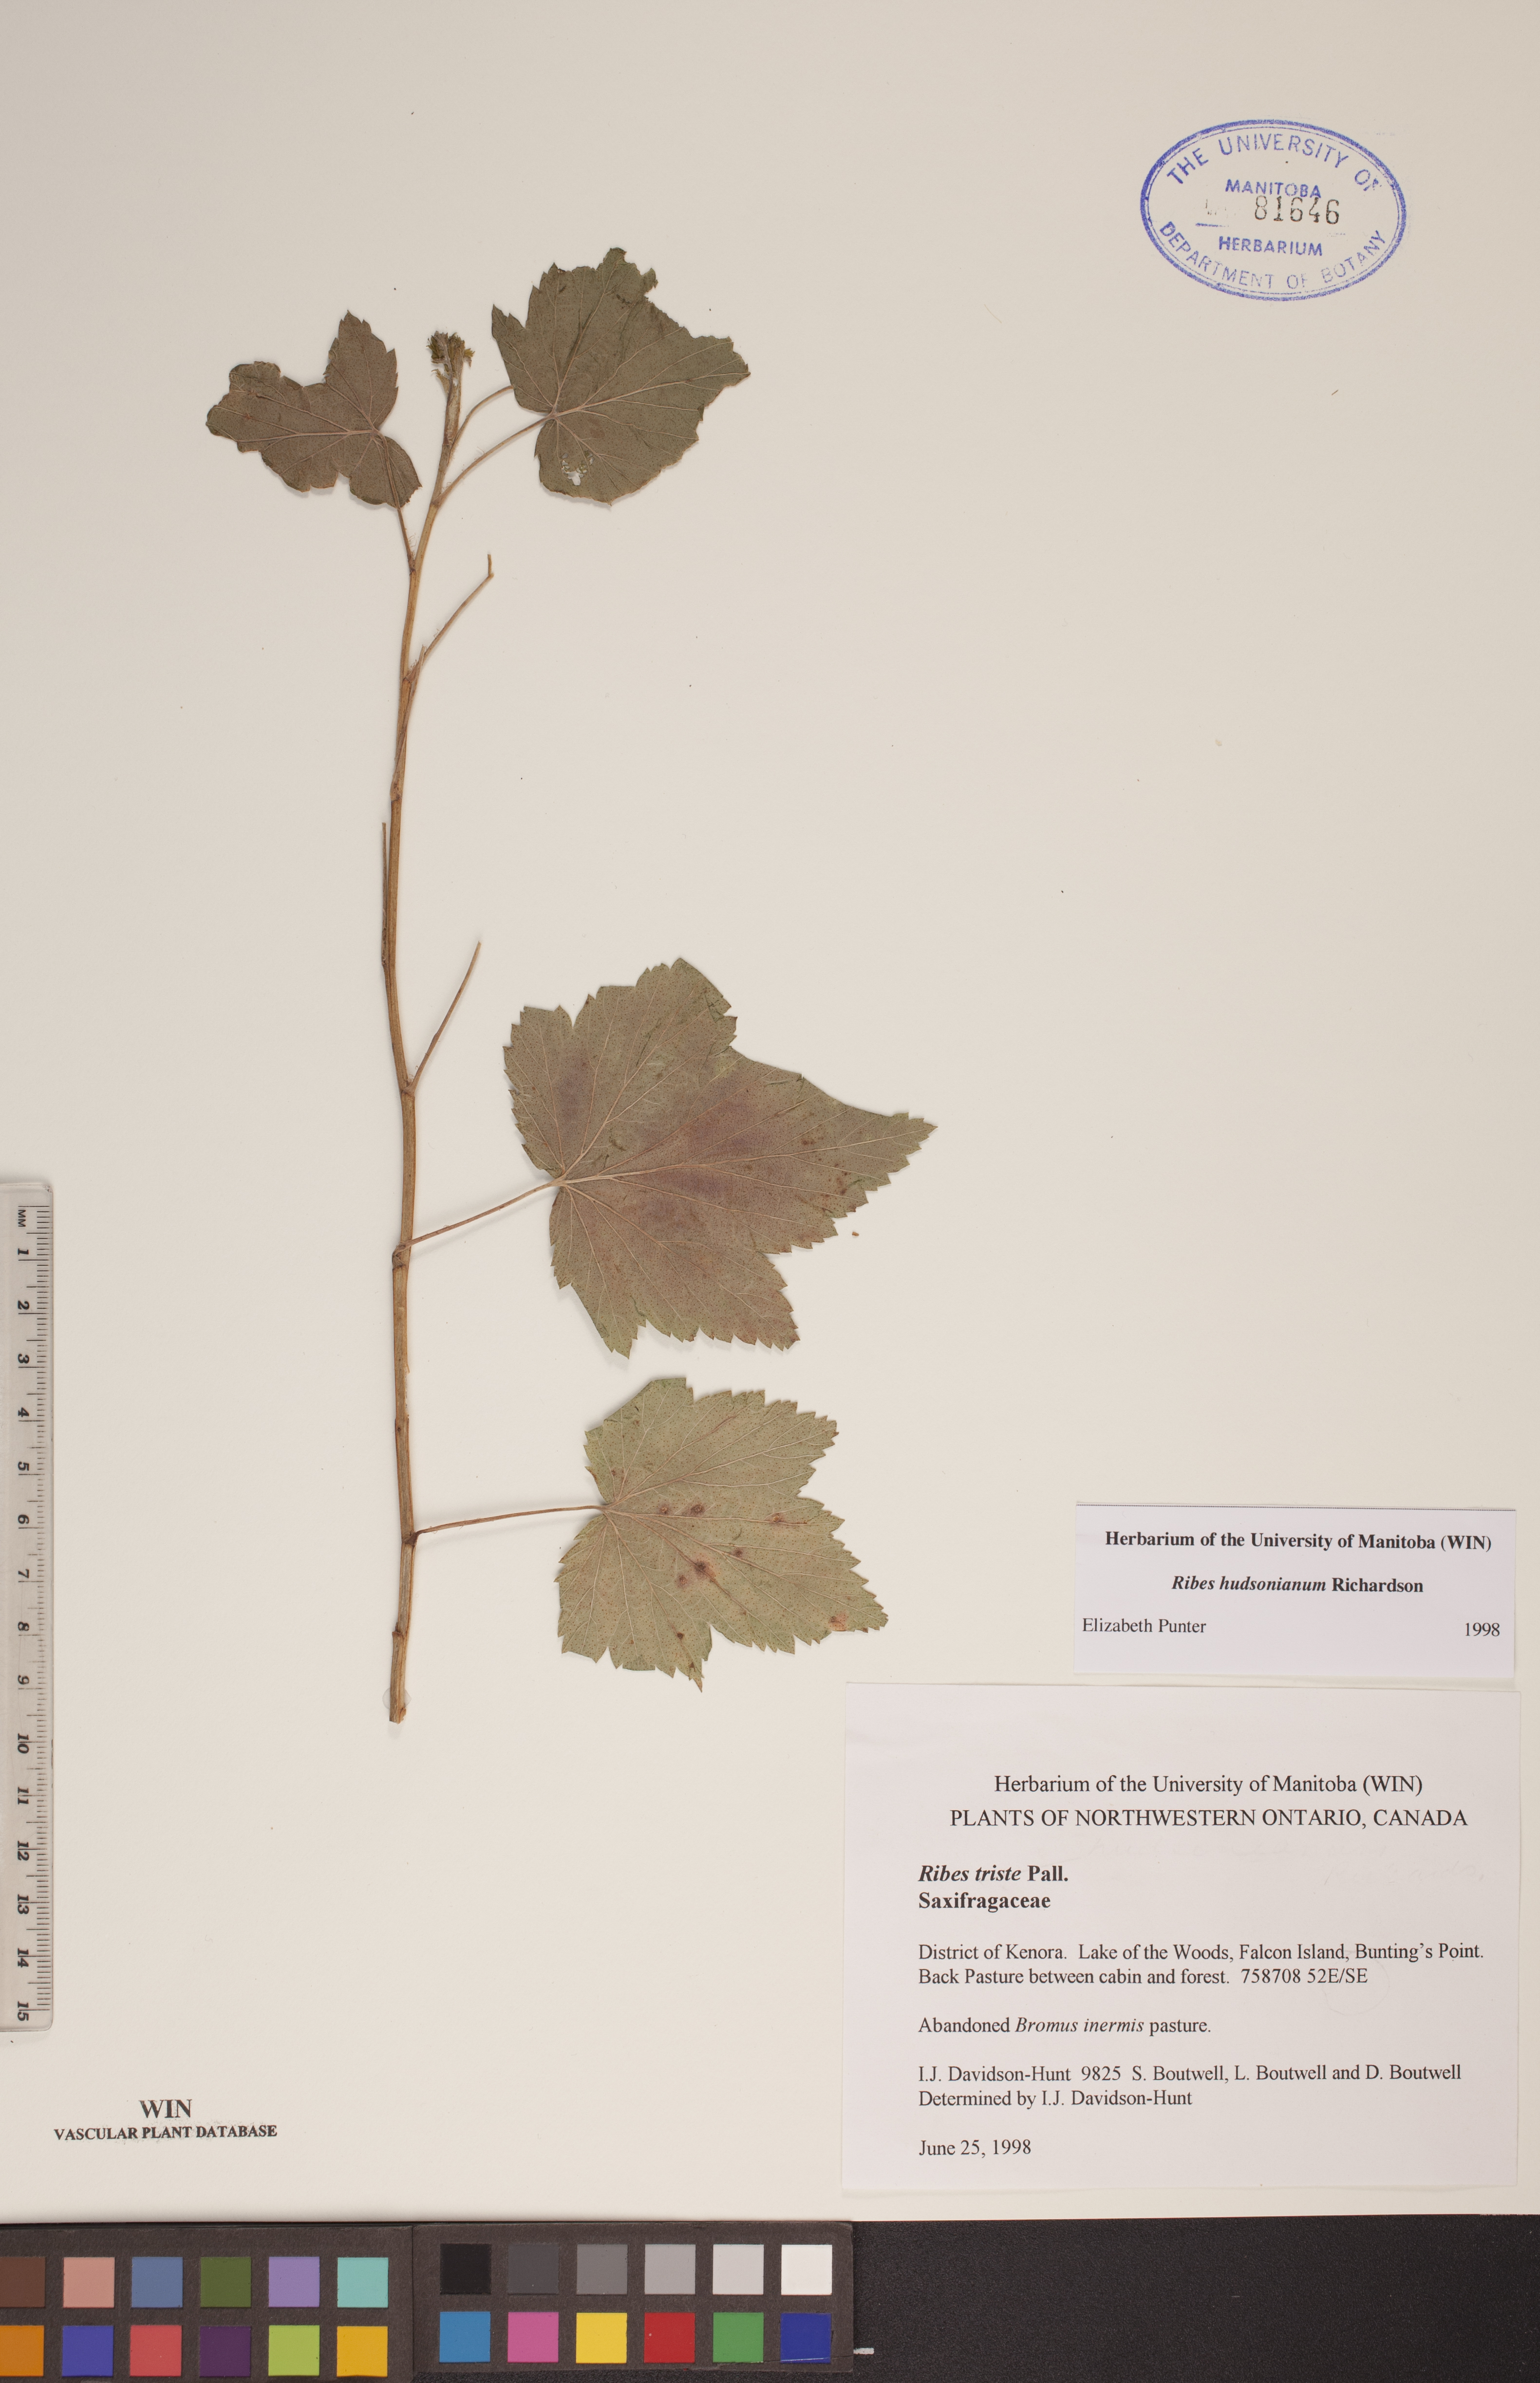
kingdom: Plantae
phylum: Tracheophyta
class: Magnoliopsida
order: Saxifragales
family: Grossulariaceae
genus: Ribes
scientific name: Ribes hudsonianum
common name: Northern black currant
